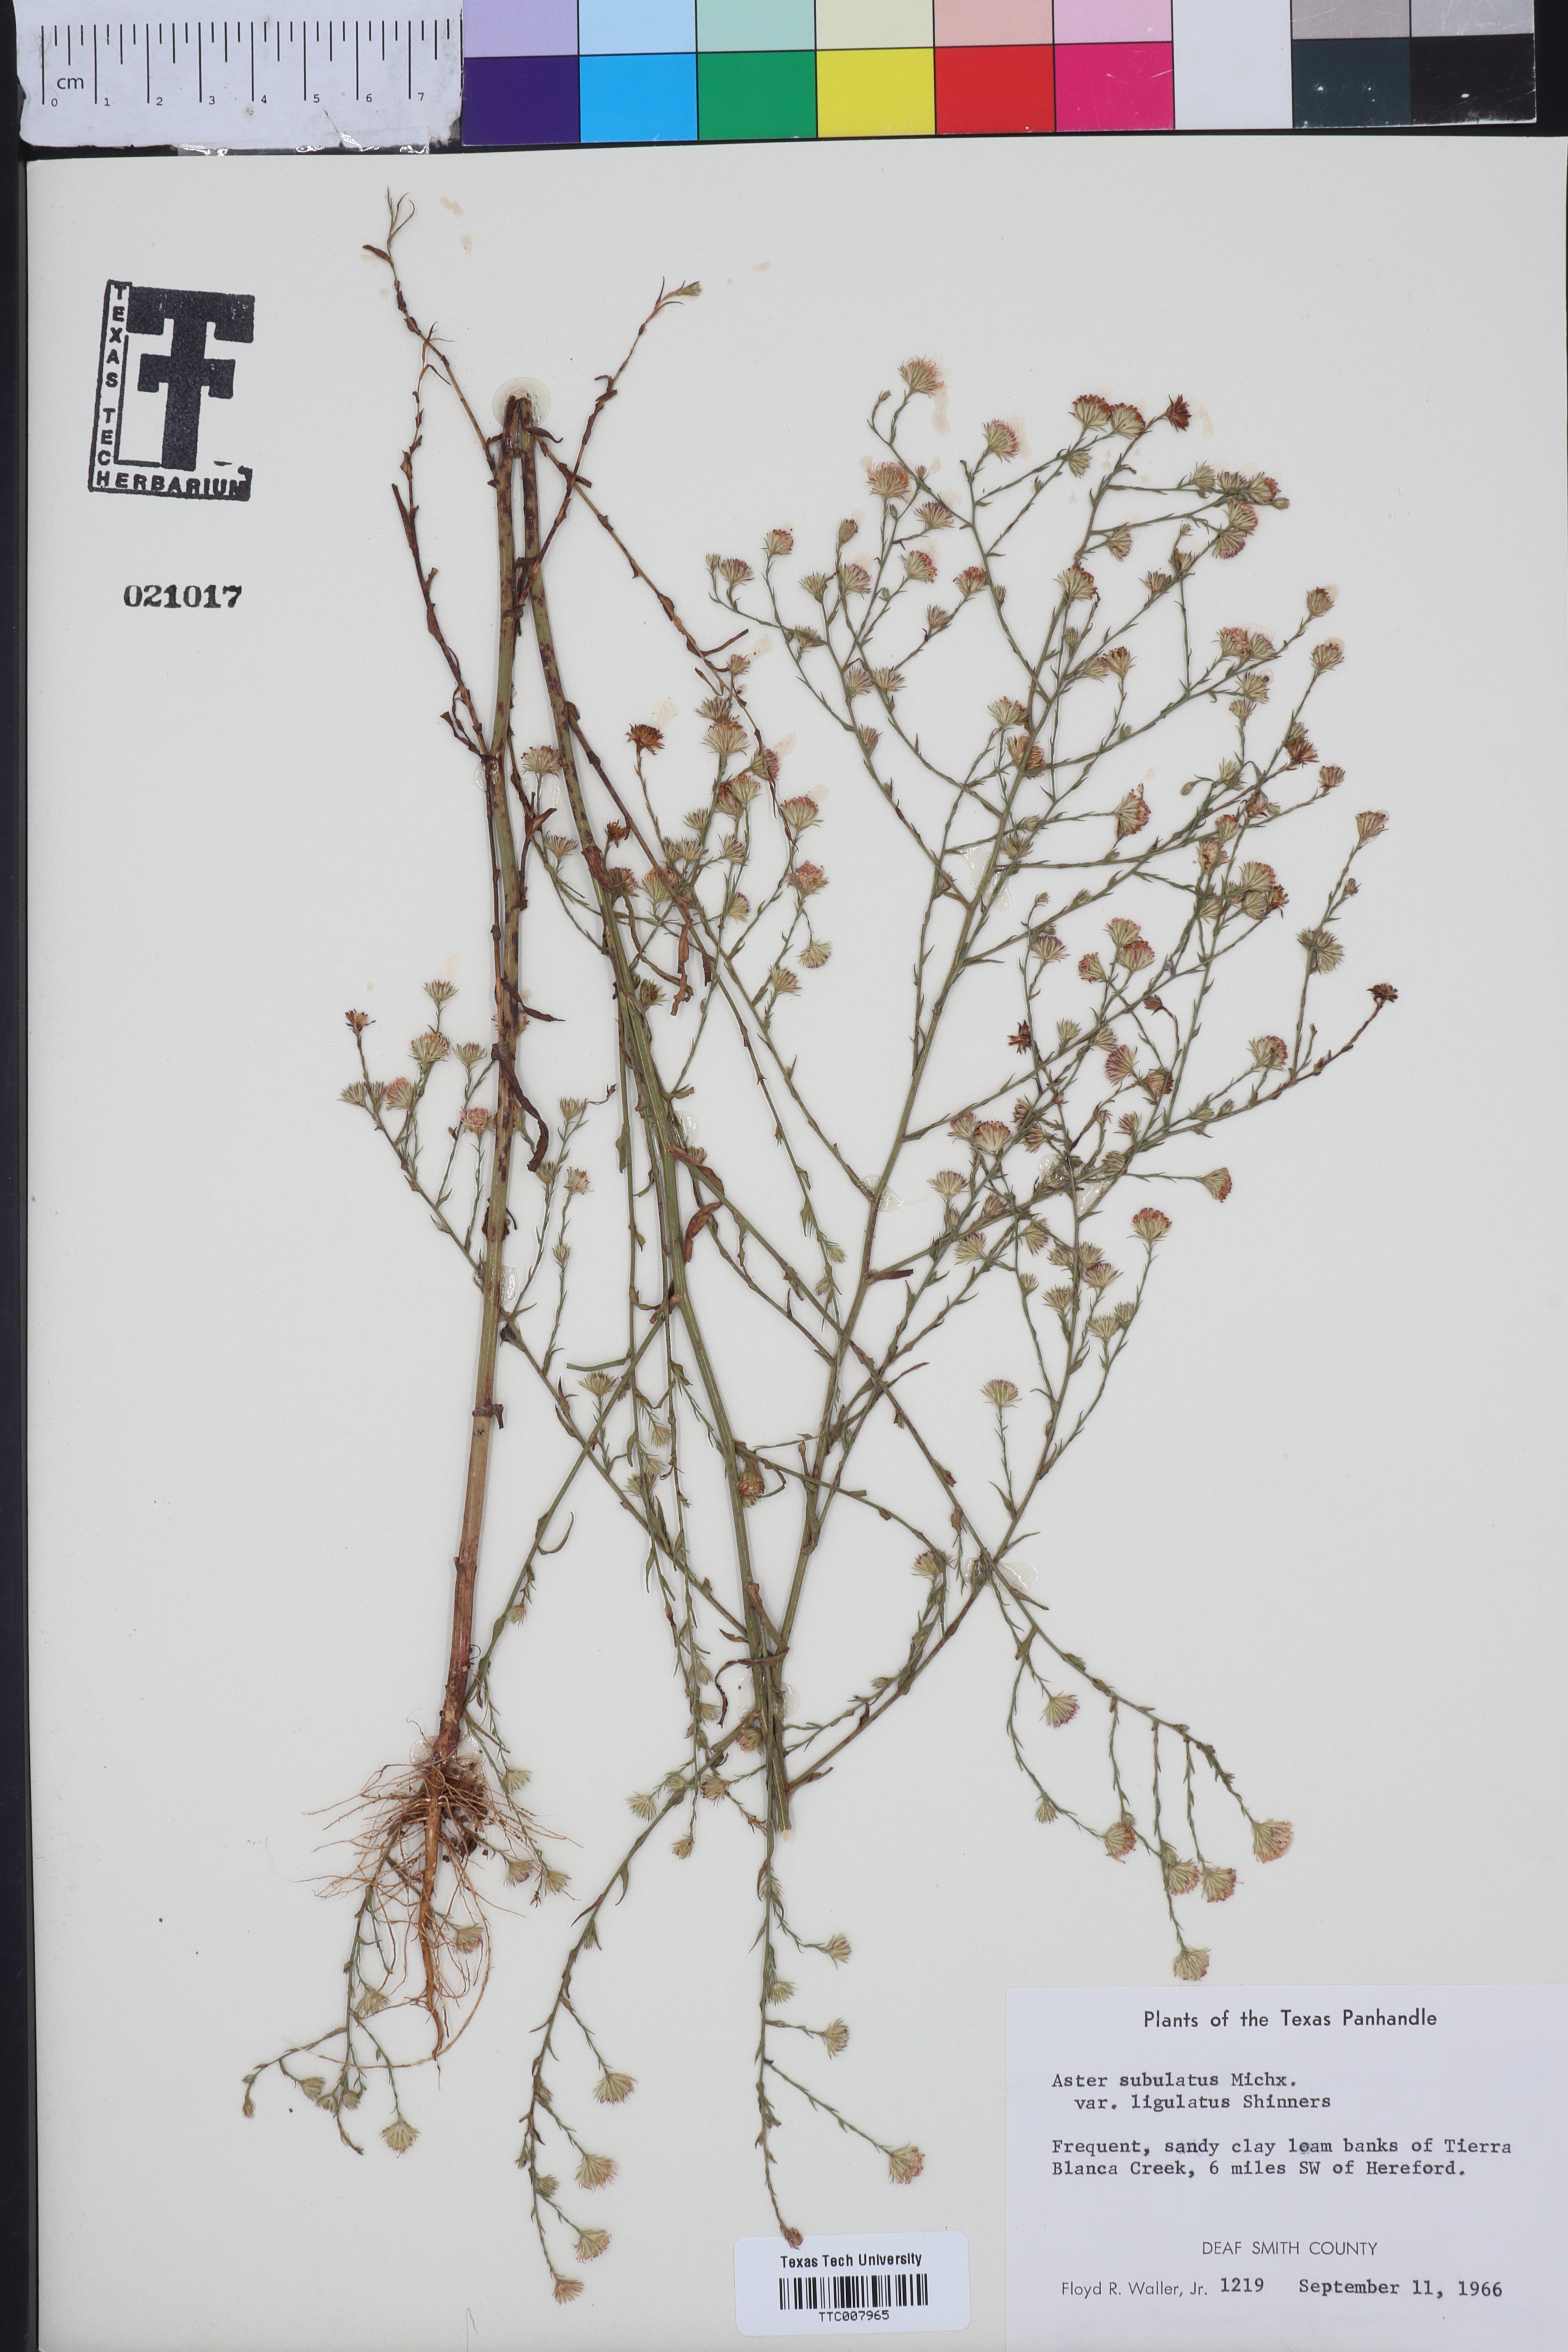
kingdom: Plantae
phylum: Tracheophyta
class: Magnoliopsida
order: Asterales
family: Asteraceae
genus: Symphyotrichum
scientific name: Symphyotrichum divaricatum
